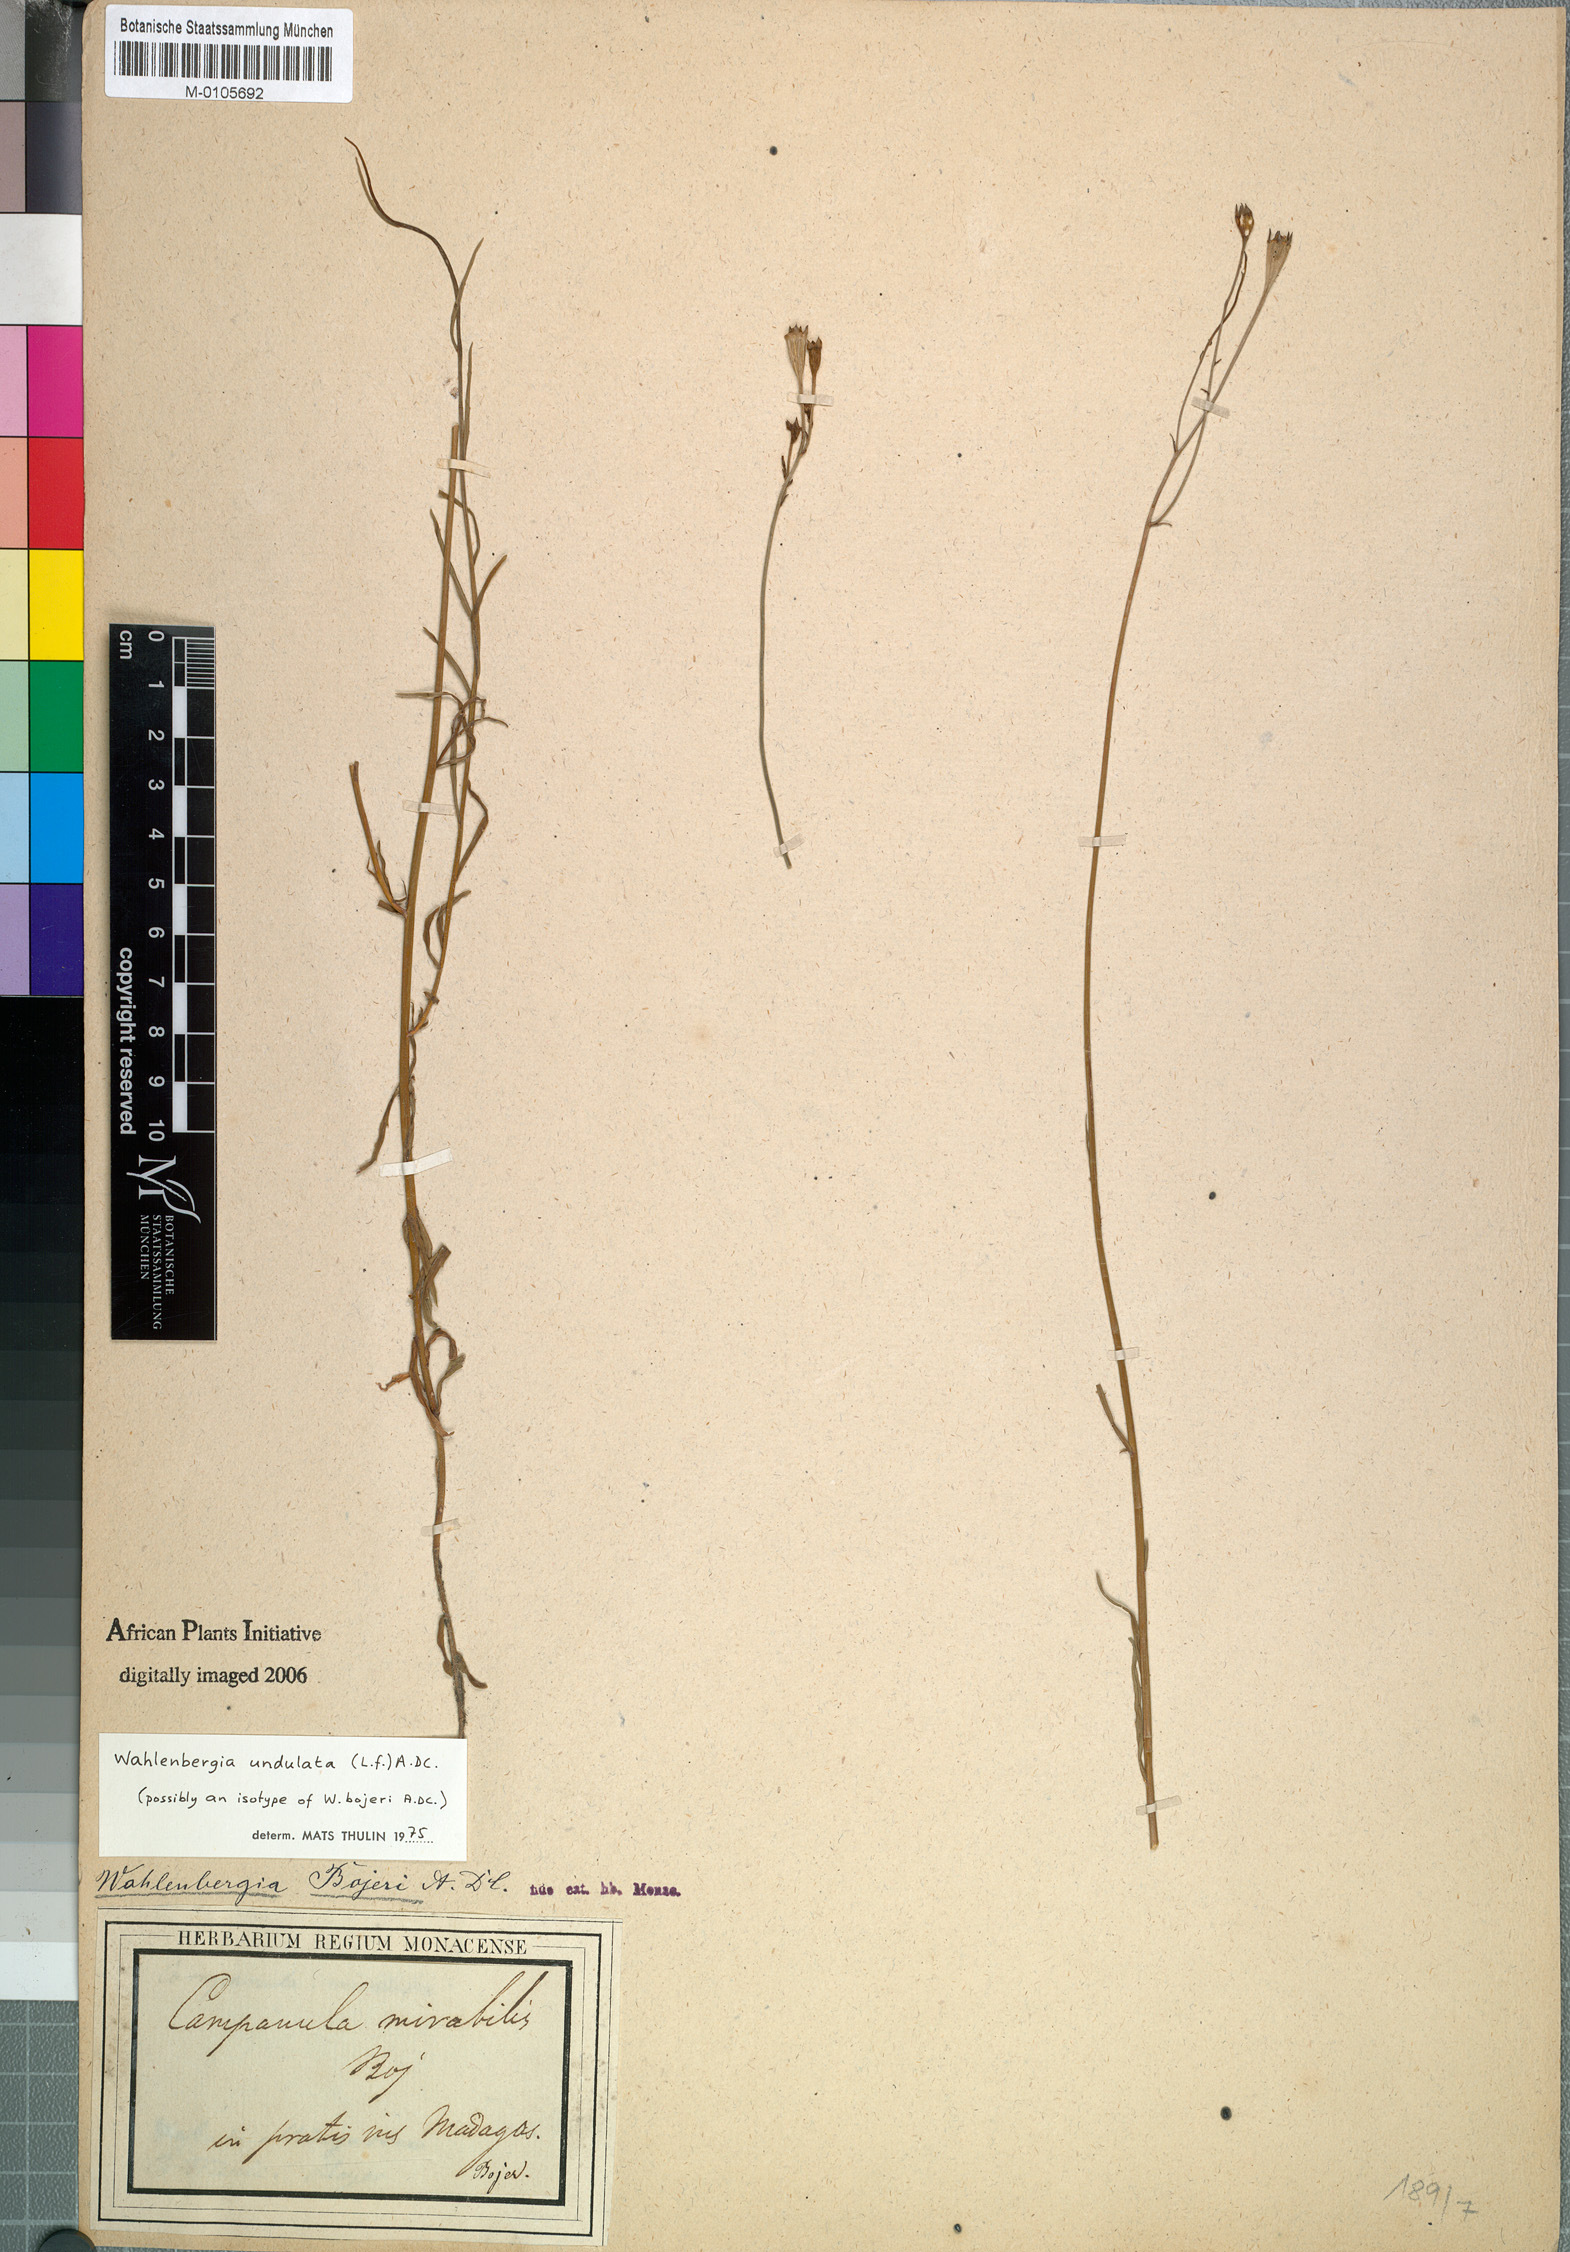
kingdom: Plantae
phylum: Tracheophyta
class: Magnoliopsida
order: Asterales
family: Campanulaceae
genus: Wahlenbergia
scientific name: Wahlenbergia undulata
